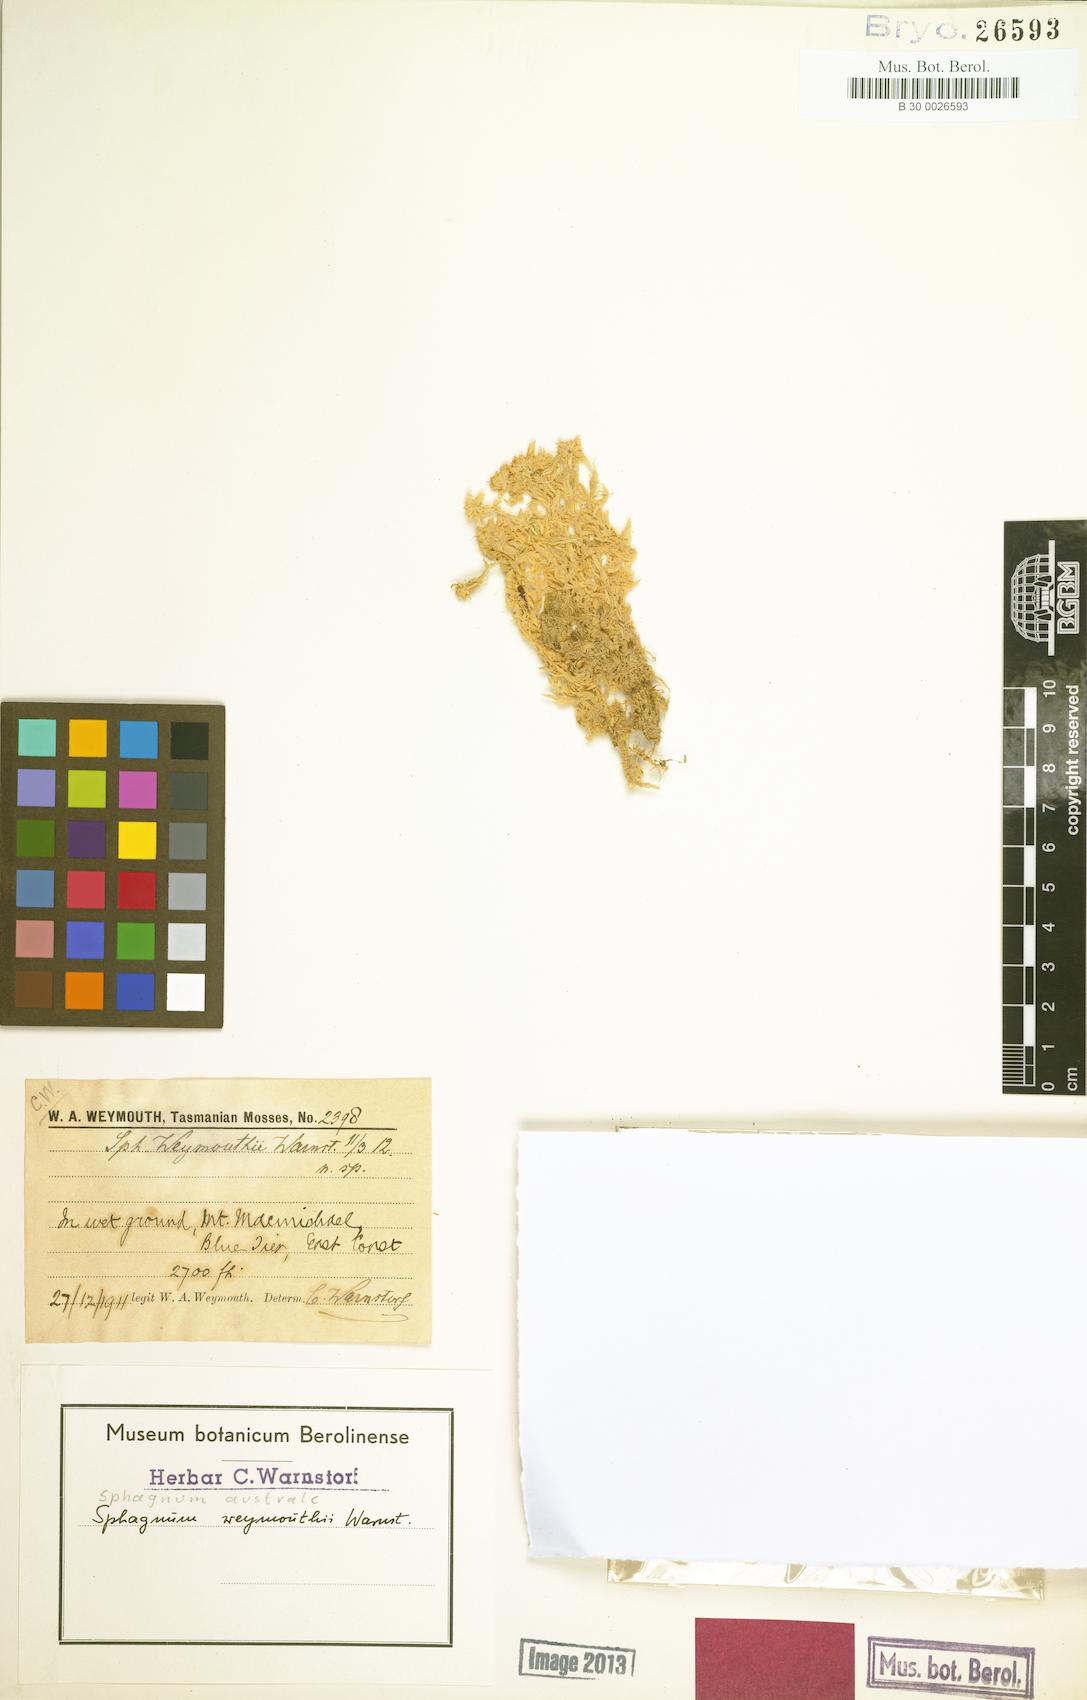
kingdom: Plantae
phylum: Bryophyta
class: Sphagnopsida
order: Sphagnales
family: Sphagnaceae
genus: Sphagnum
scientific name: Sphagnum australe
